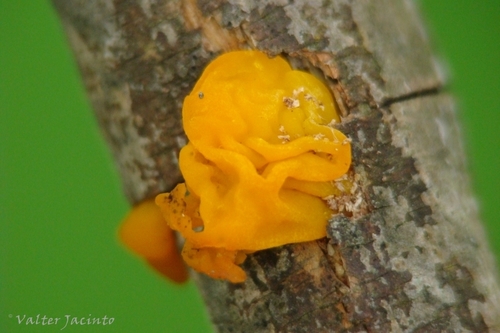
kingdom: Fungi
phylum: Basidiomycota
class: Tremellomycetes
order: Tremellales
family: Tremellaceae
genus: Tremella
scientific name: Tremella mesenterica
